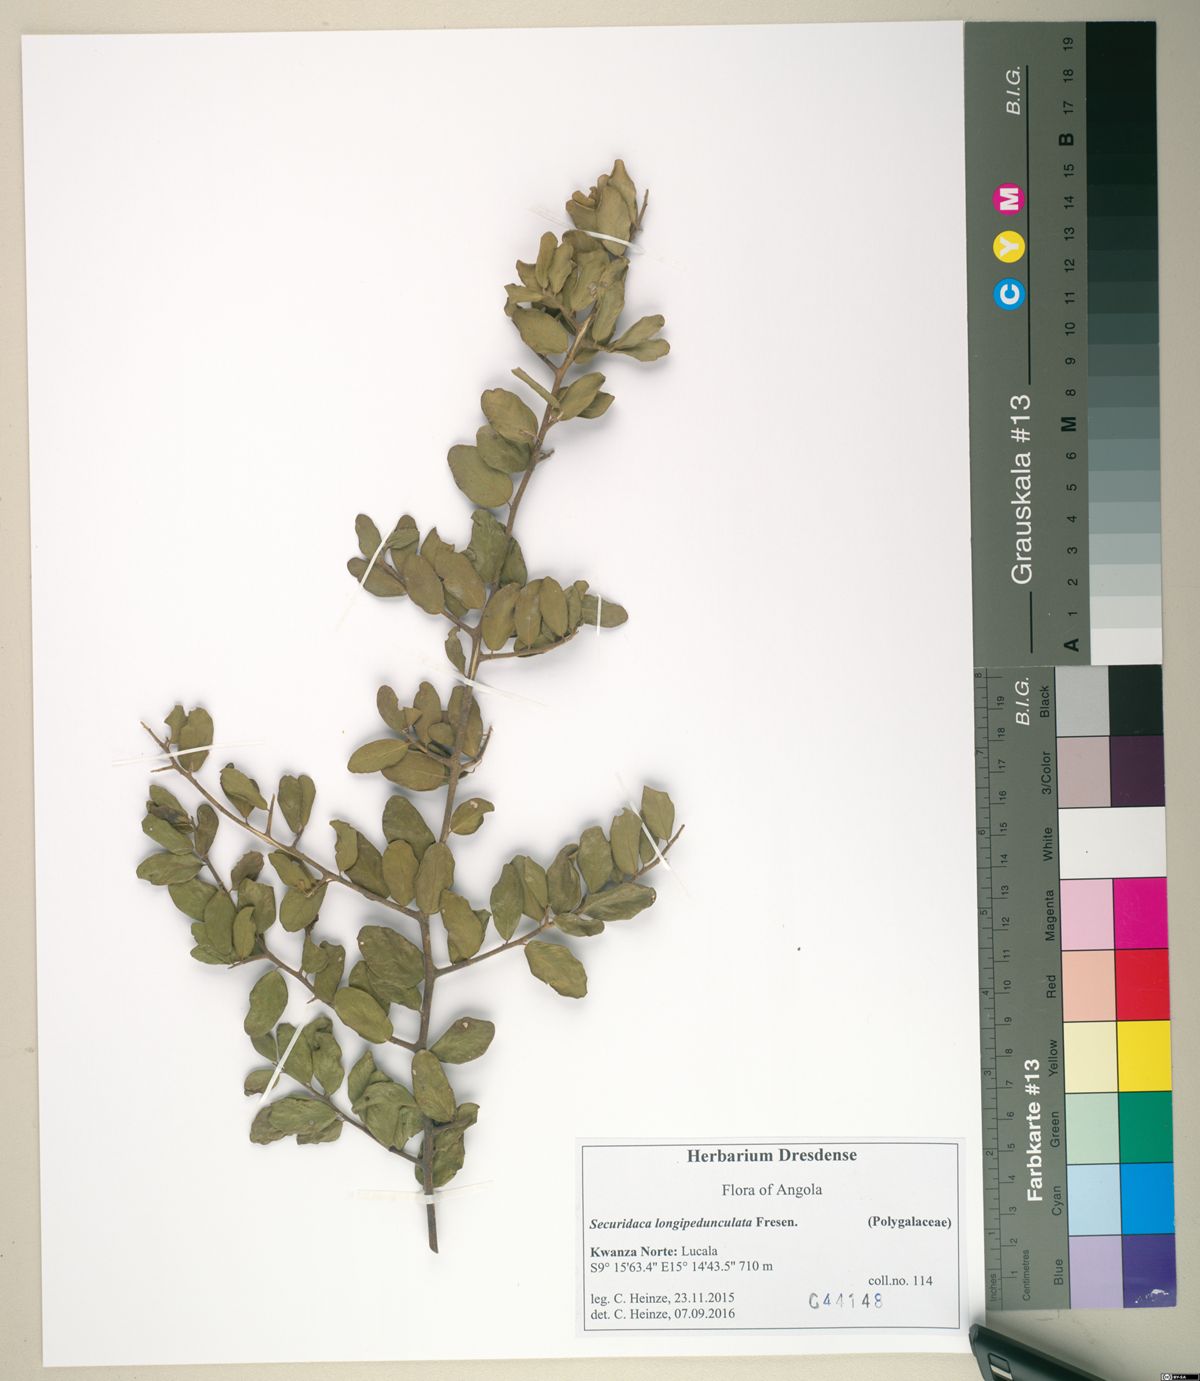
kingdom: Plantae
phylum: Tracheophyta
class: Magnoliopsida
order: Fabales
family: Polygalaceae
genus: Securidaca
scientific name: Securidaca longepedunculata
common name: Violet tree
